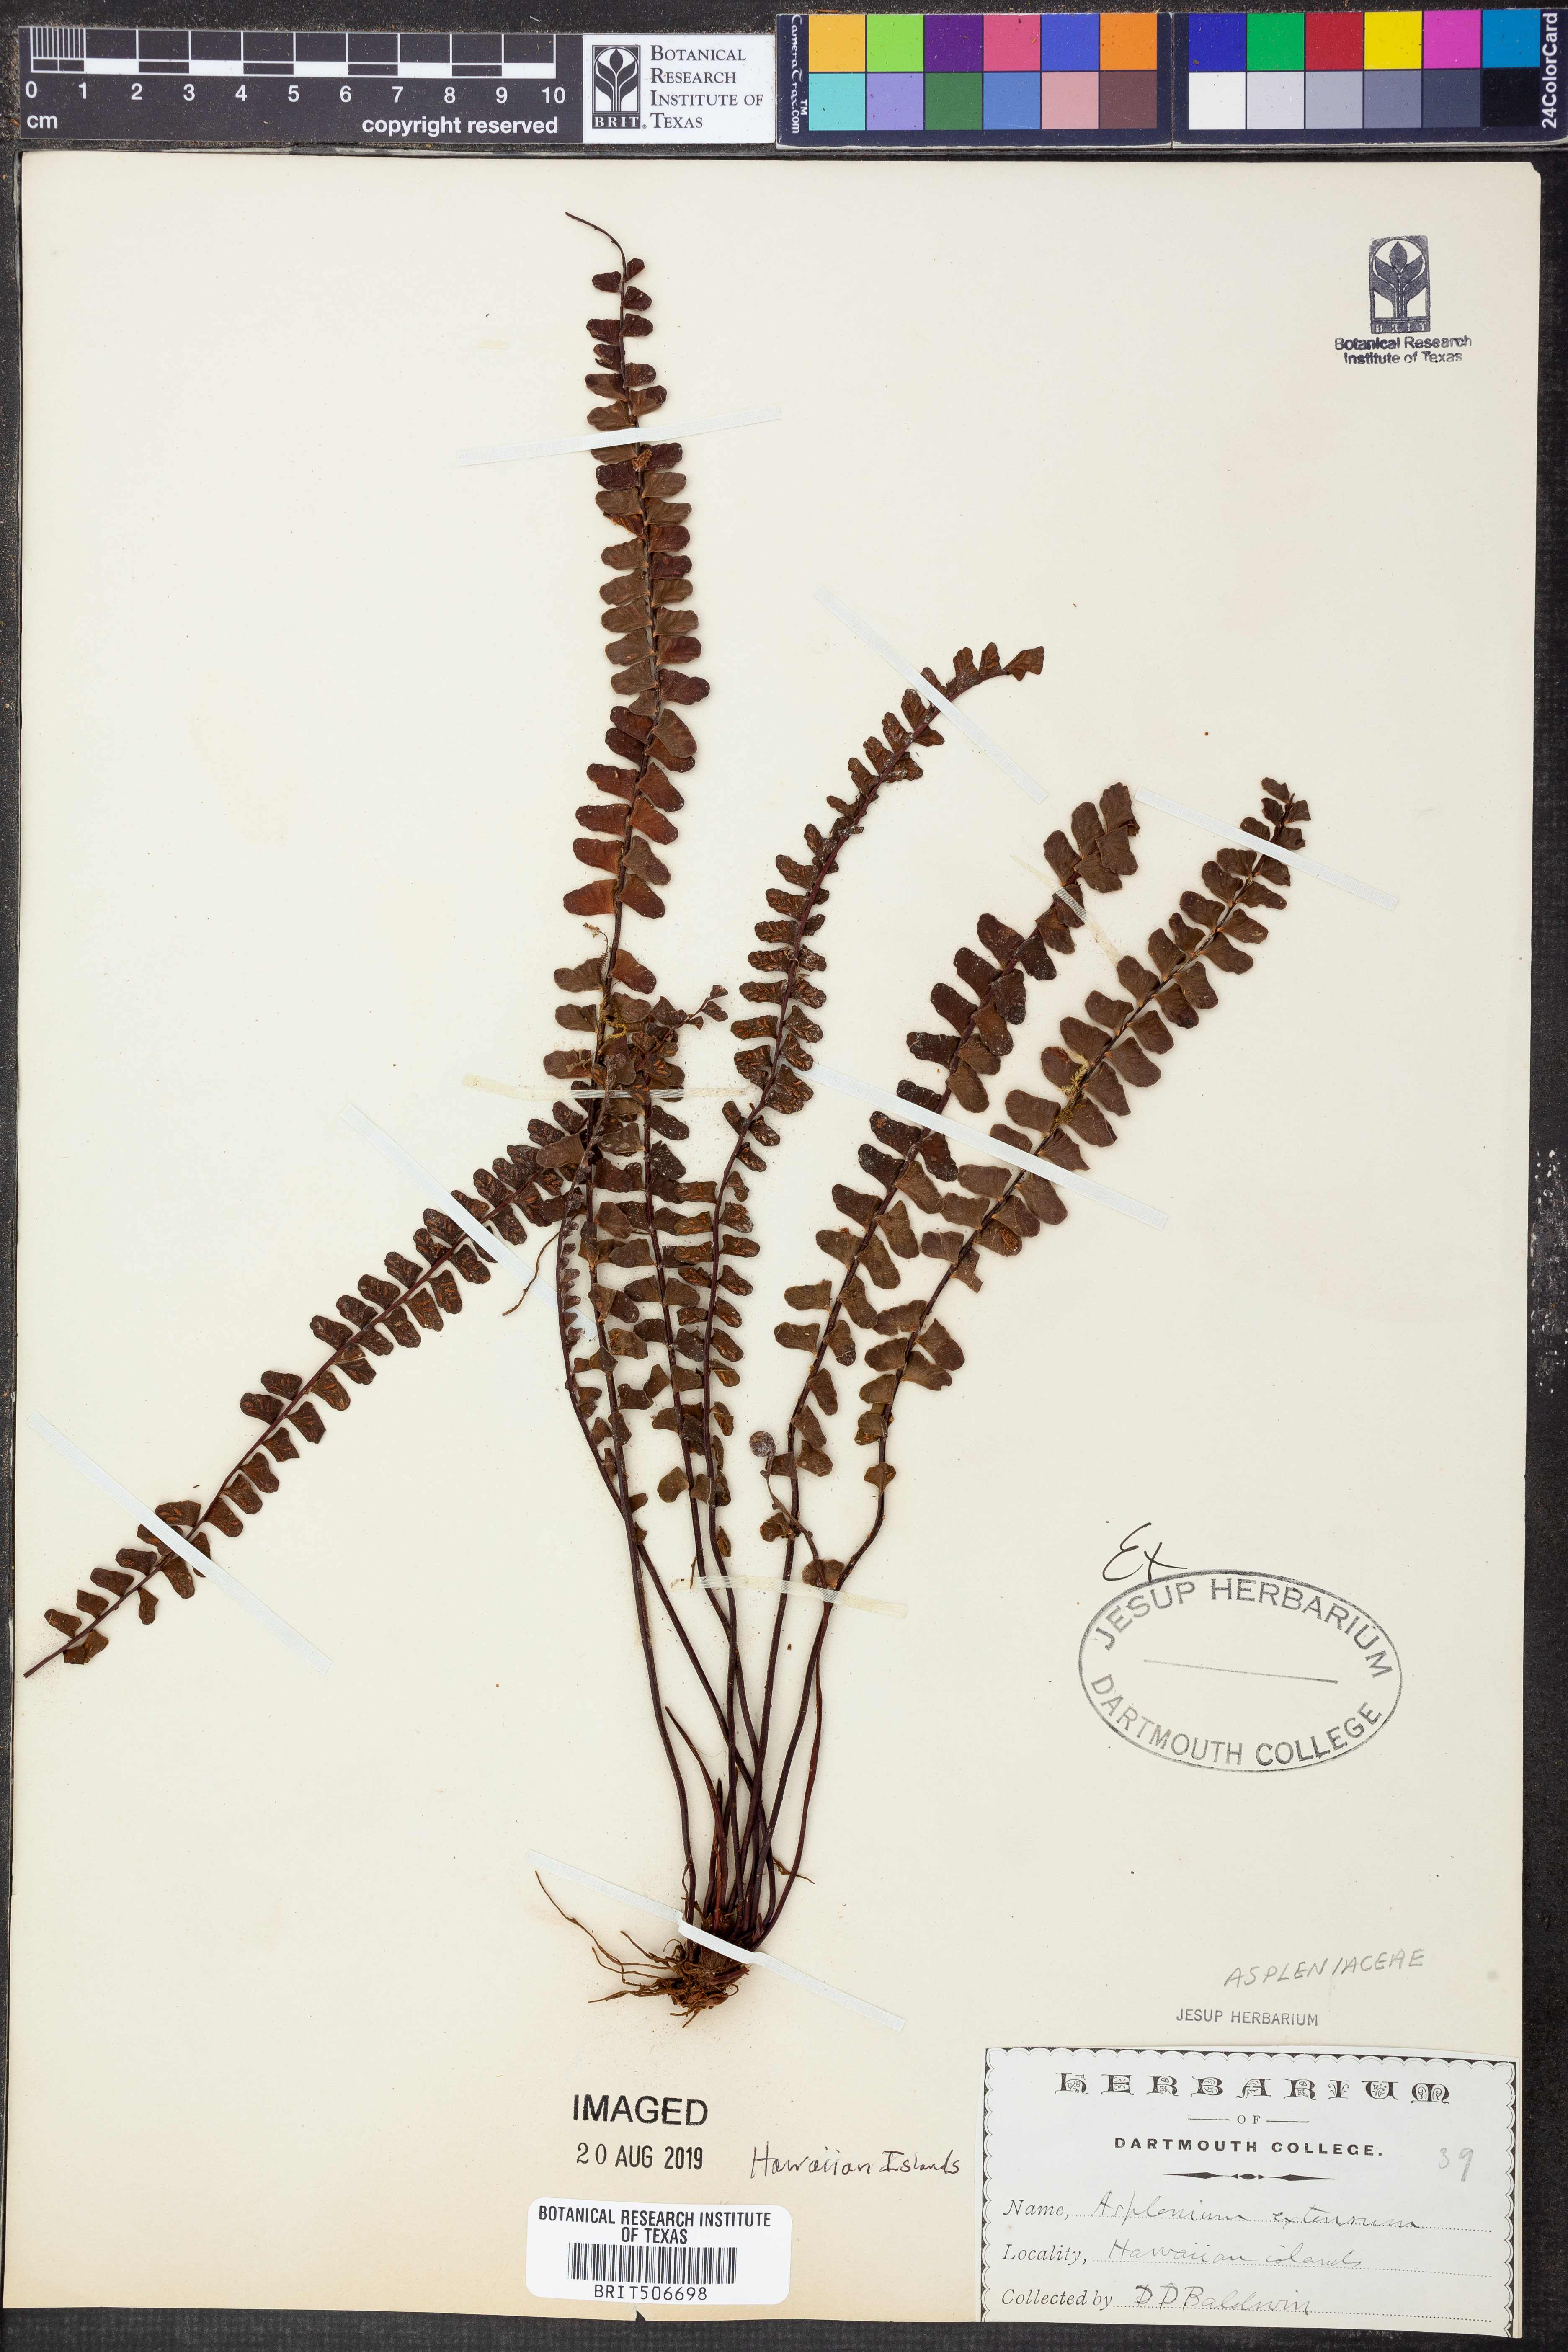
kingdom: Plantae
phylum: Tracheophyta
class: Polypodiopsida
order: Polypodiales
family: Aspleniaceae
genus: Asplenium
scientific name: Asplenium extensum
